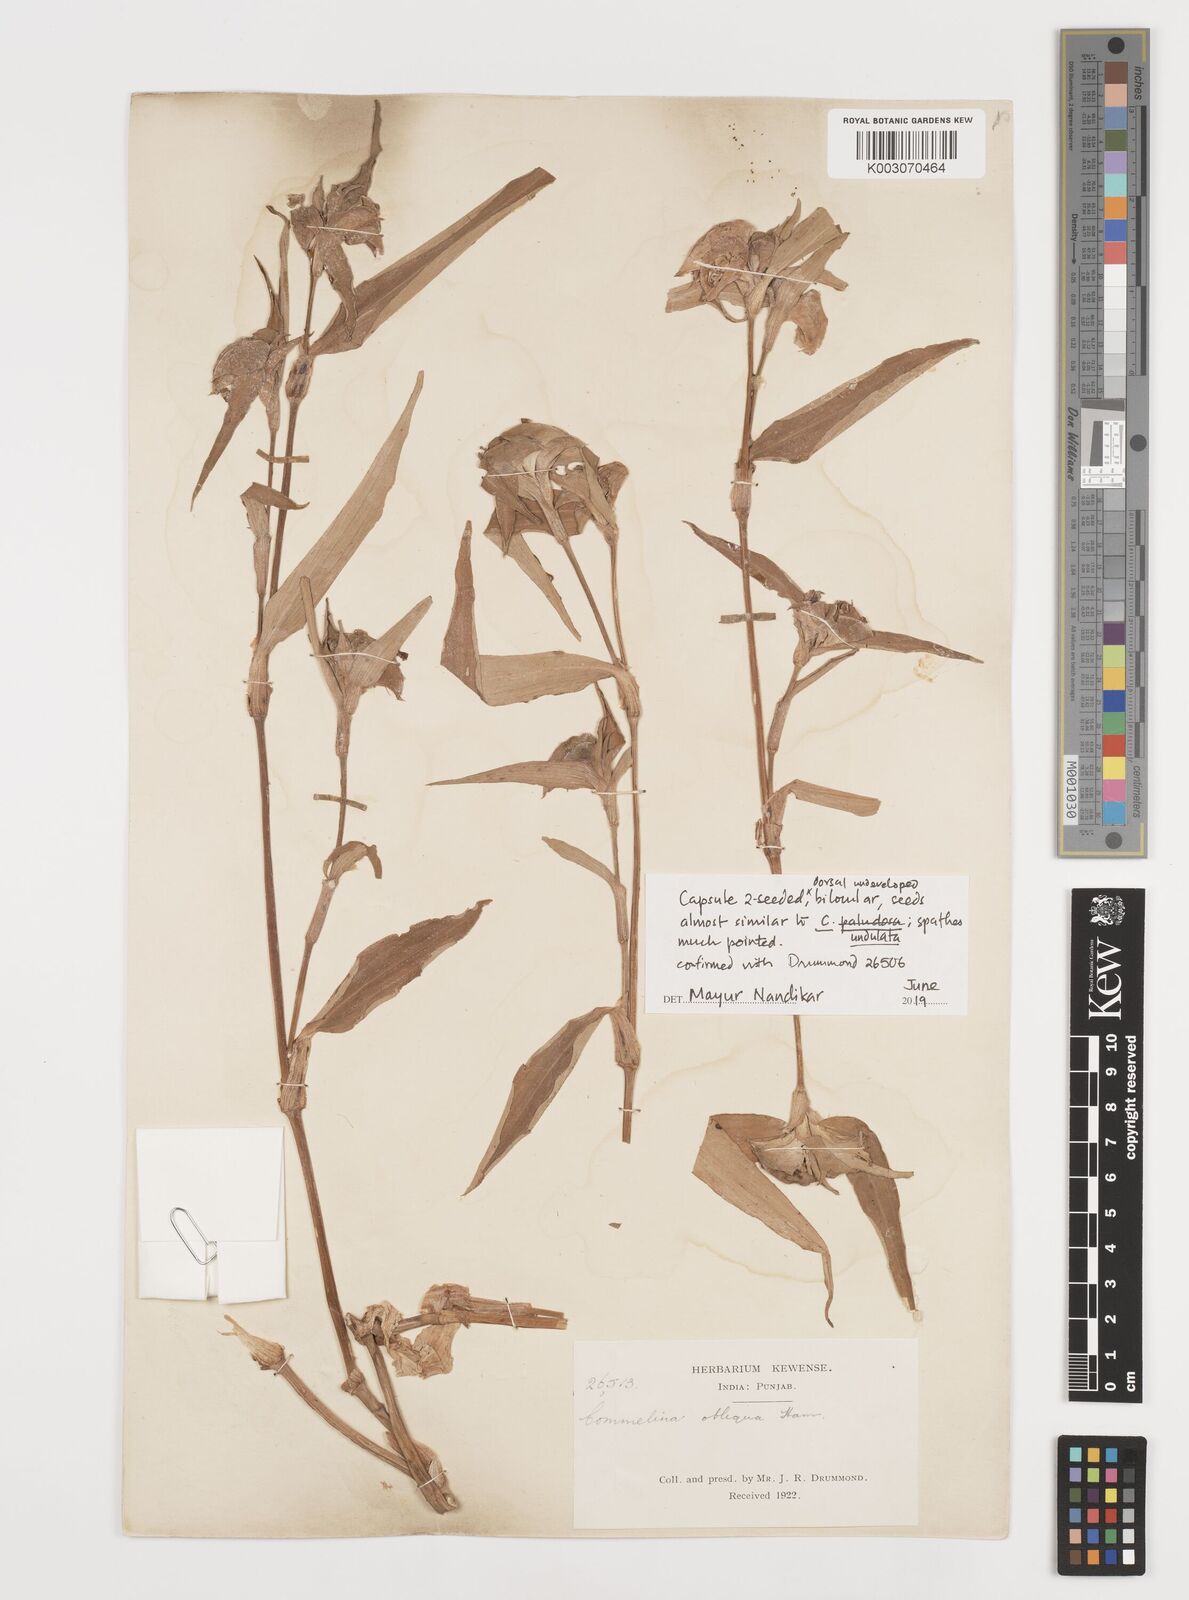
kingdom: Plantae
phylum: Tracheophyta
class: Liliopsida
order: Commelinales
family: Commelinaceae
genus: Commelina
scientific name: Commelina undulata
